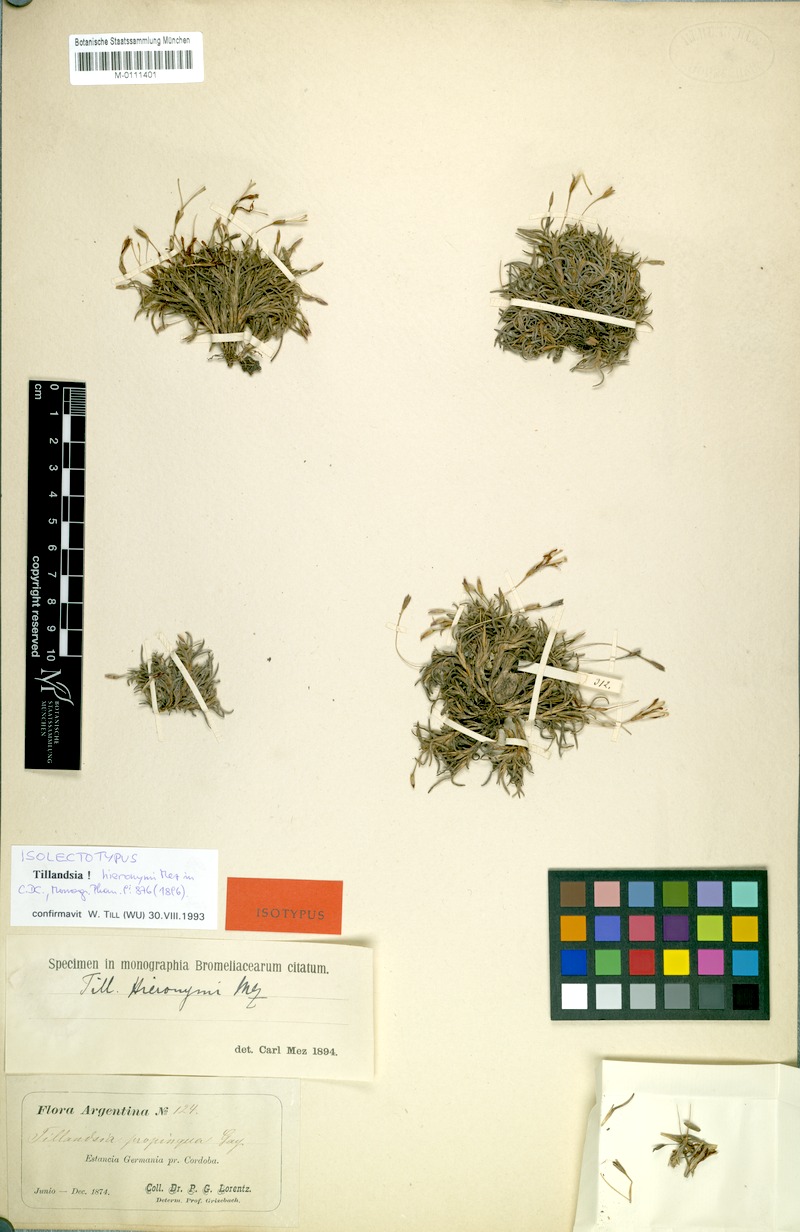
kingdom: Plantae
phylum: Tracheophyta
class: Liliopsida
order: Poales
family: Bromeliaceae
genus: Tillandsia
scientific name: Tillandsia capillaris
